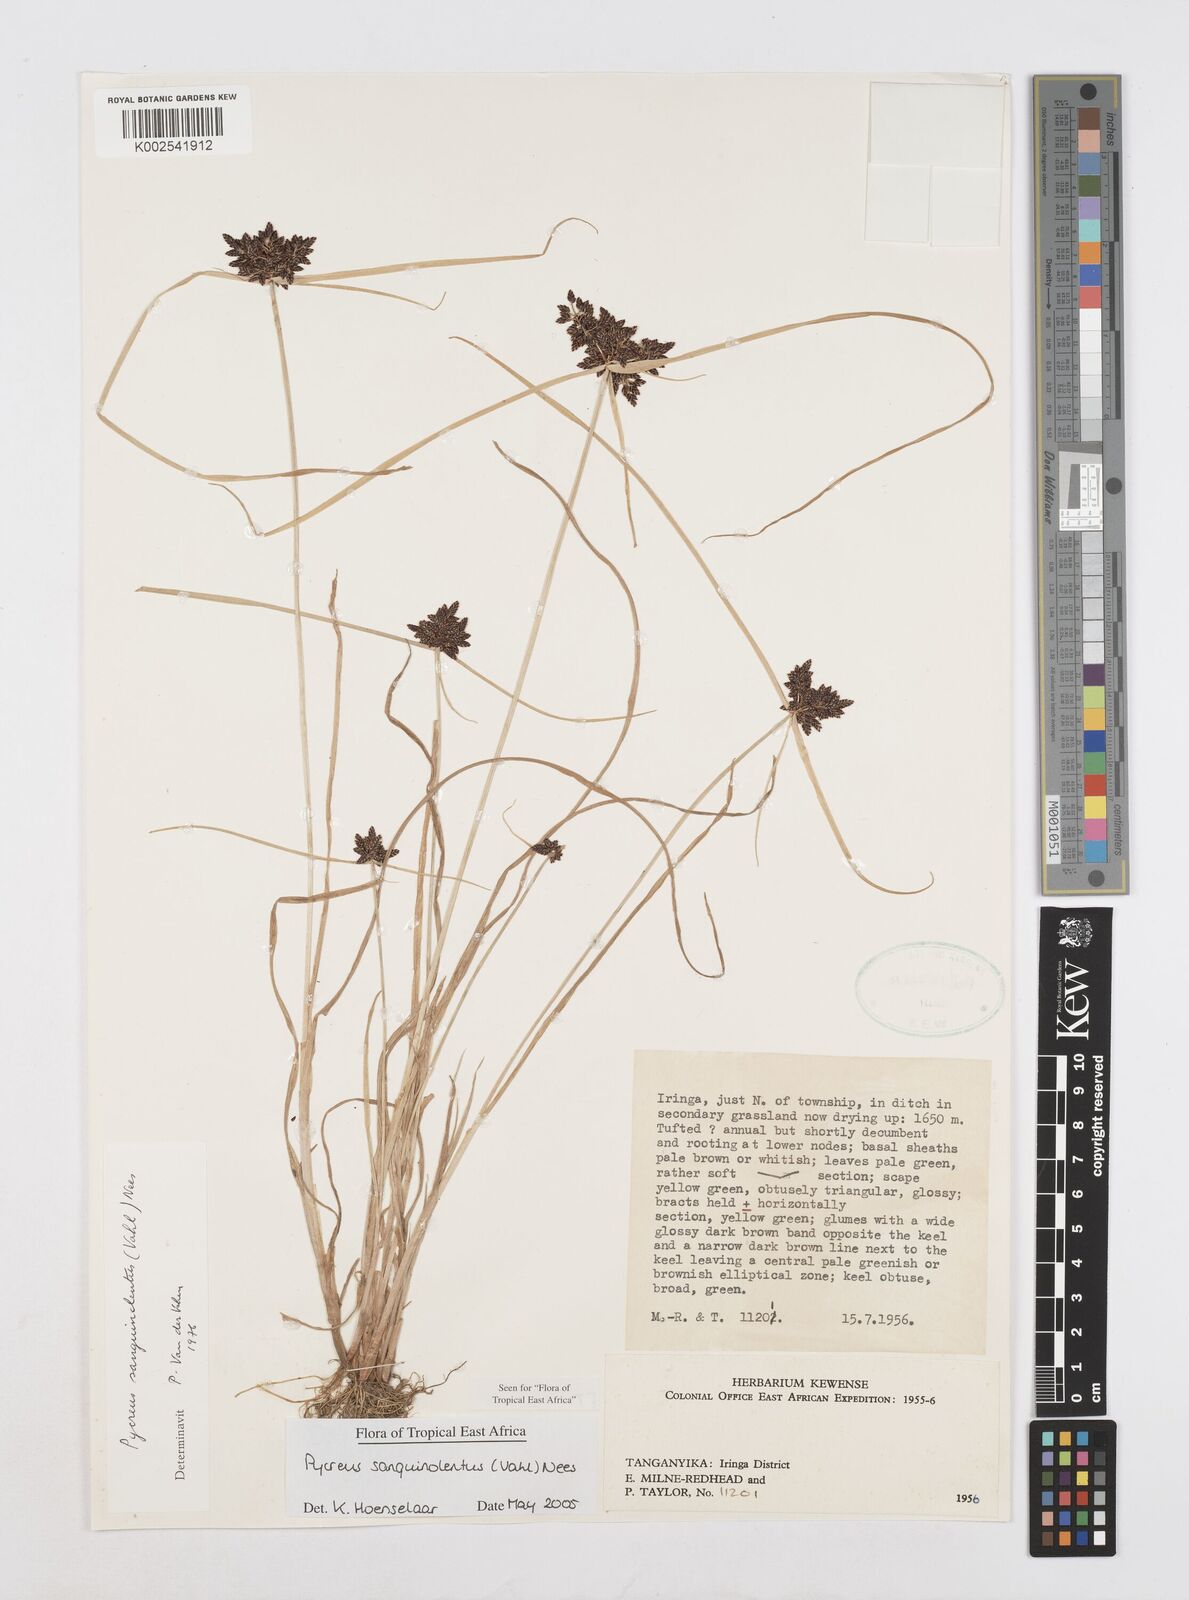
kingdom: Plantae
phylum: Tracheophyta
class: Liliopsida
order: Poales
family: Cyperaceae
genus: Cyperus
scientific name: Cyperus sanguinolentus
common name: Purpleglume flatsedge
